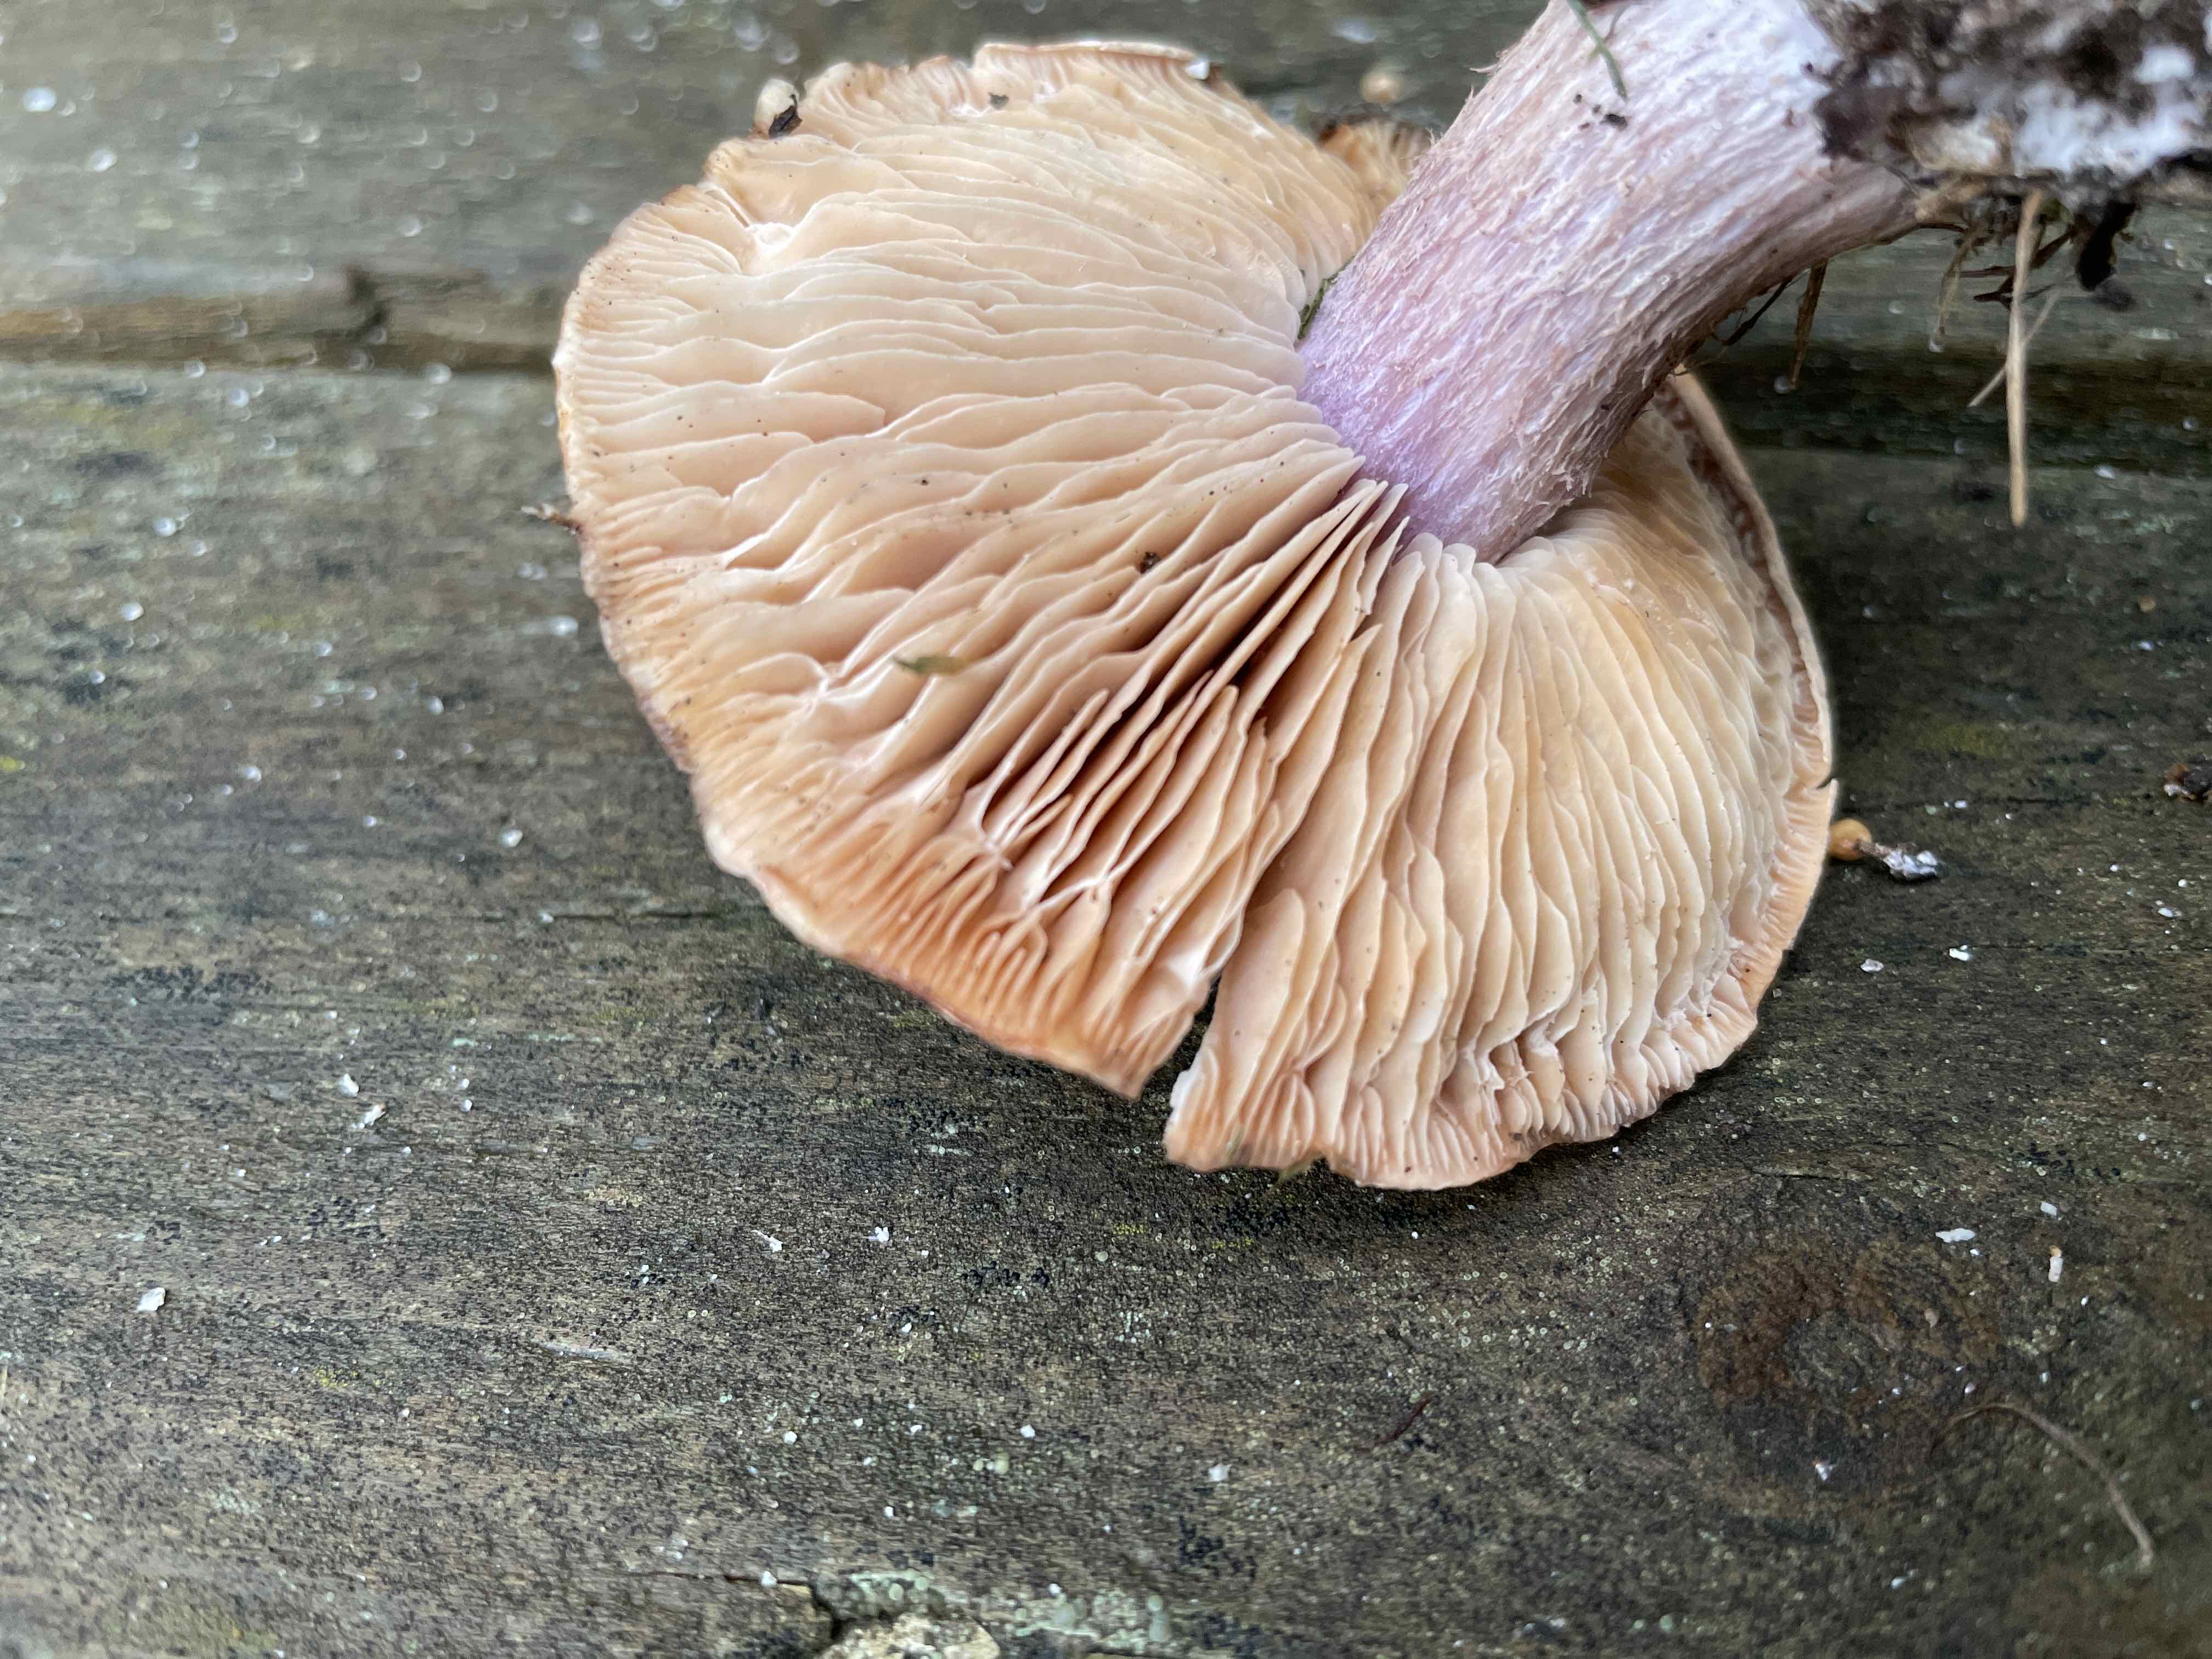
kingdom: Fungi
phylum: Basidiomycota
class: Agaricomycetes
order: Agaricales
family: Tricholomataceae
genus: Lepista
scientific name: Lepista personata
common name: bleg hekseringshat
